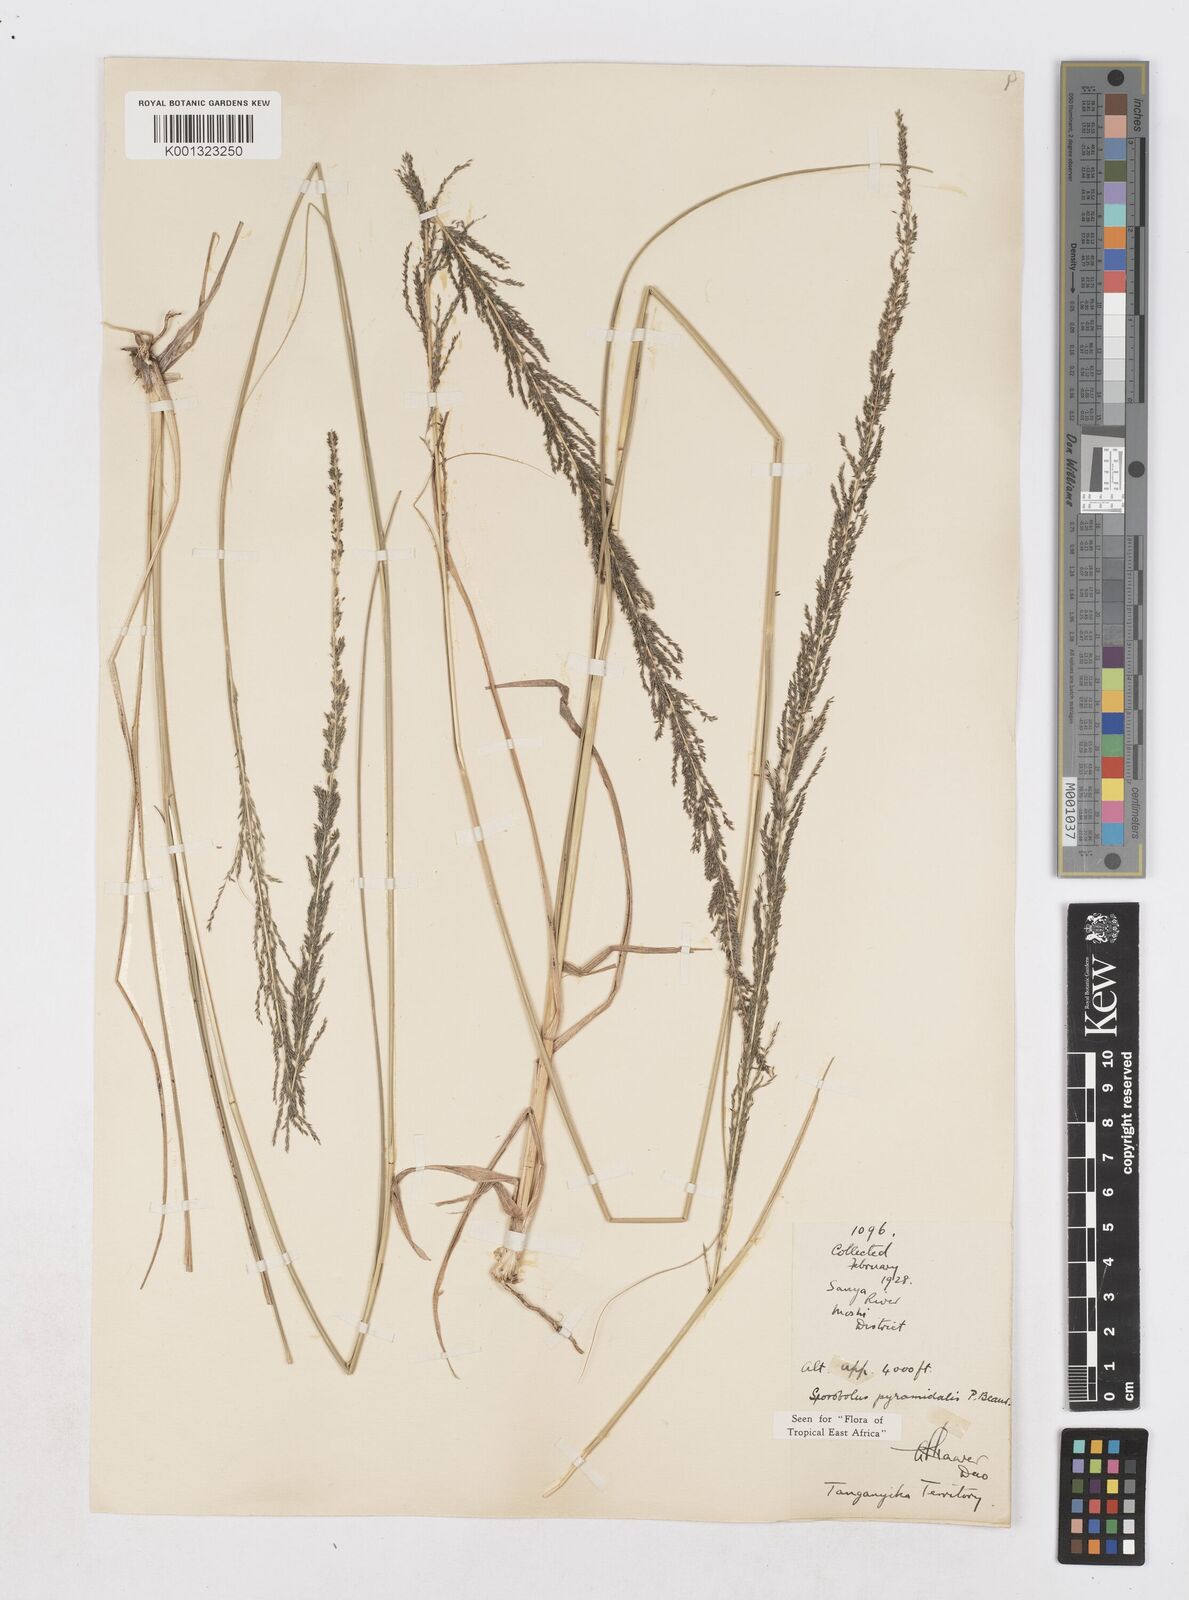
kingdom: Plantae
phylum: Tracheophyta
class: Liliopsida
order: Poales
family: Poaceae
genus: Sporobolus
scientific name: Sporobolus pyramidalis
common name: West indian dropseed
